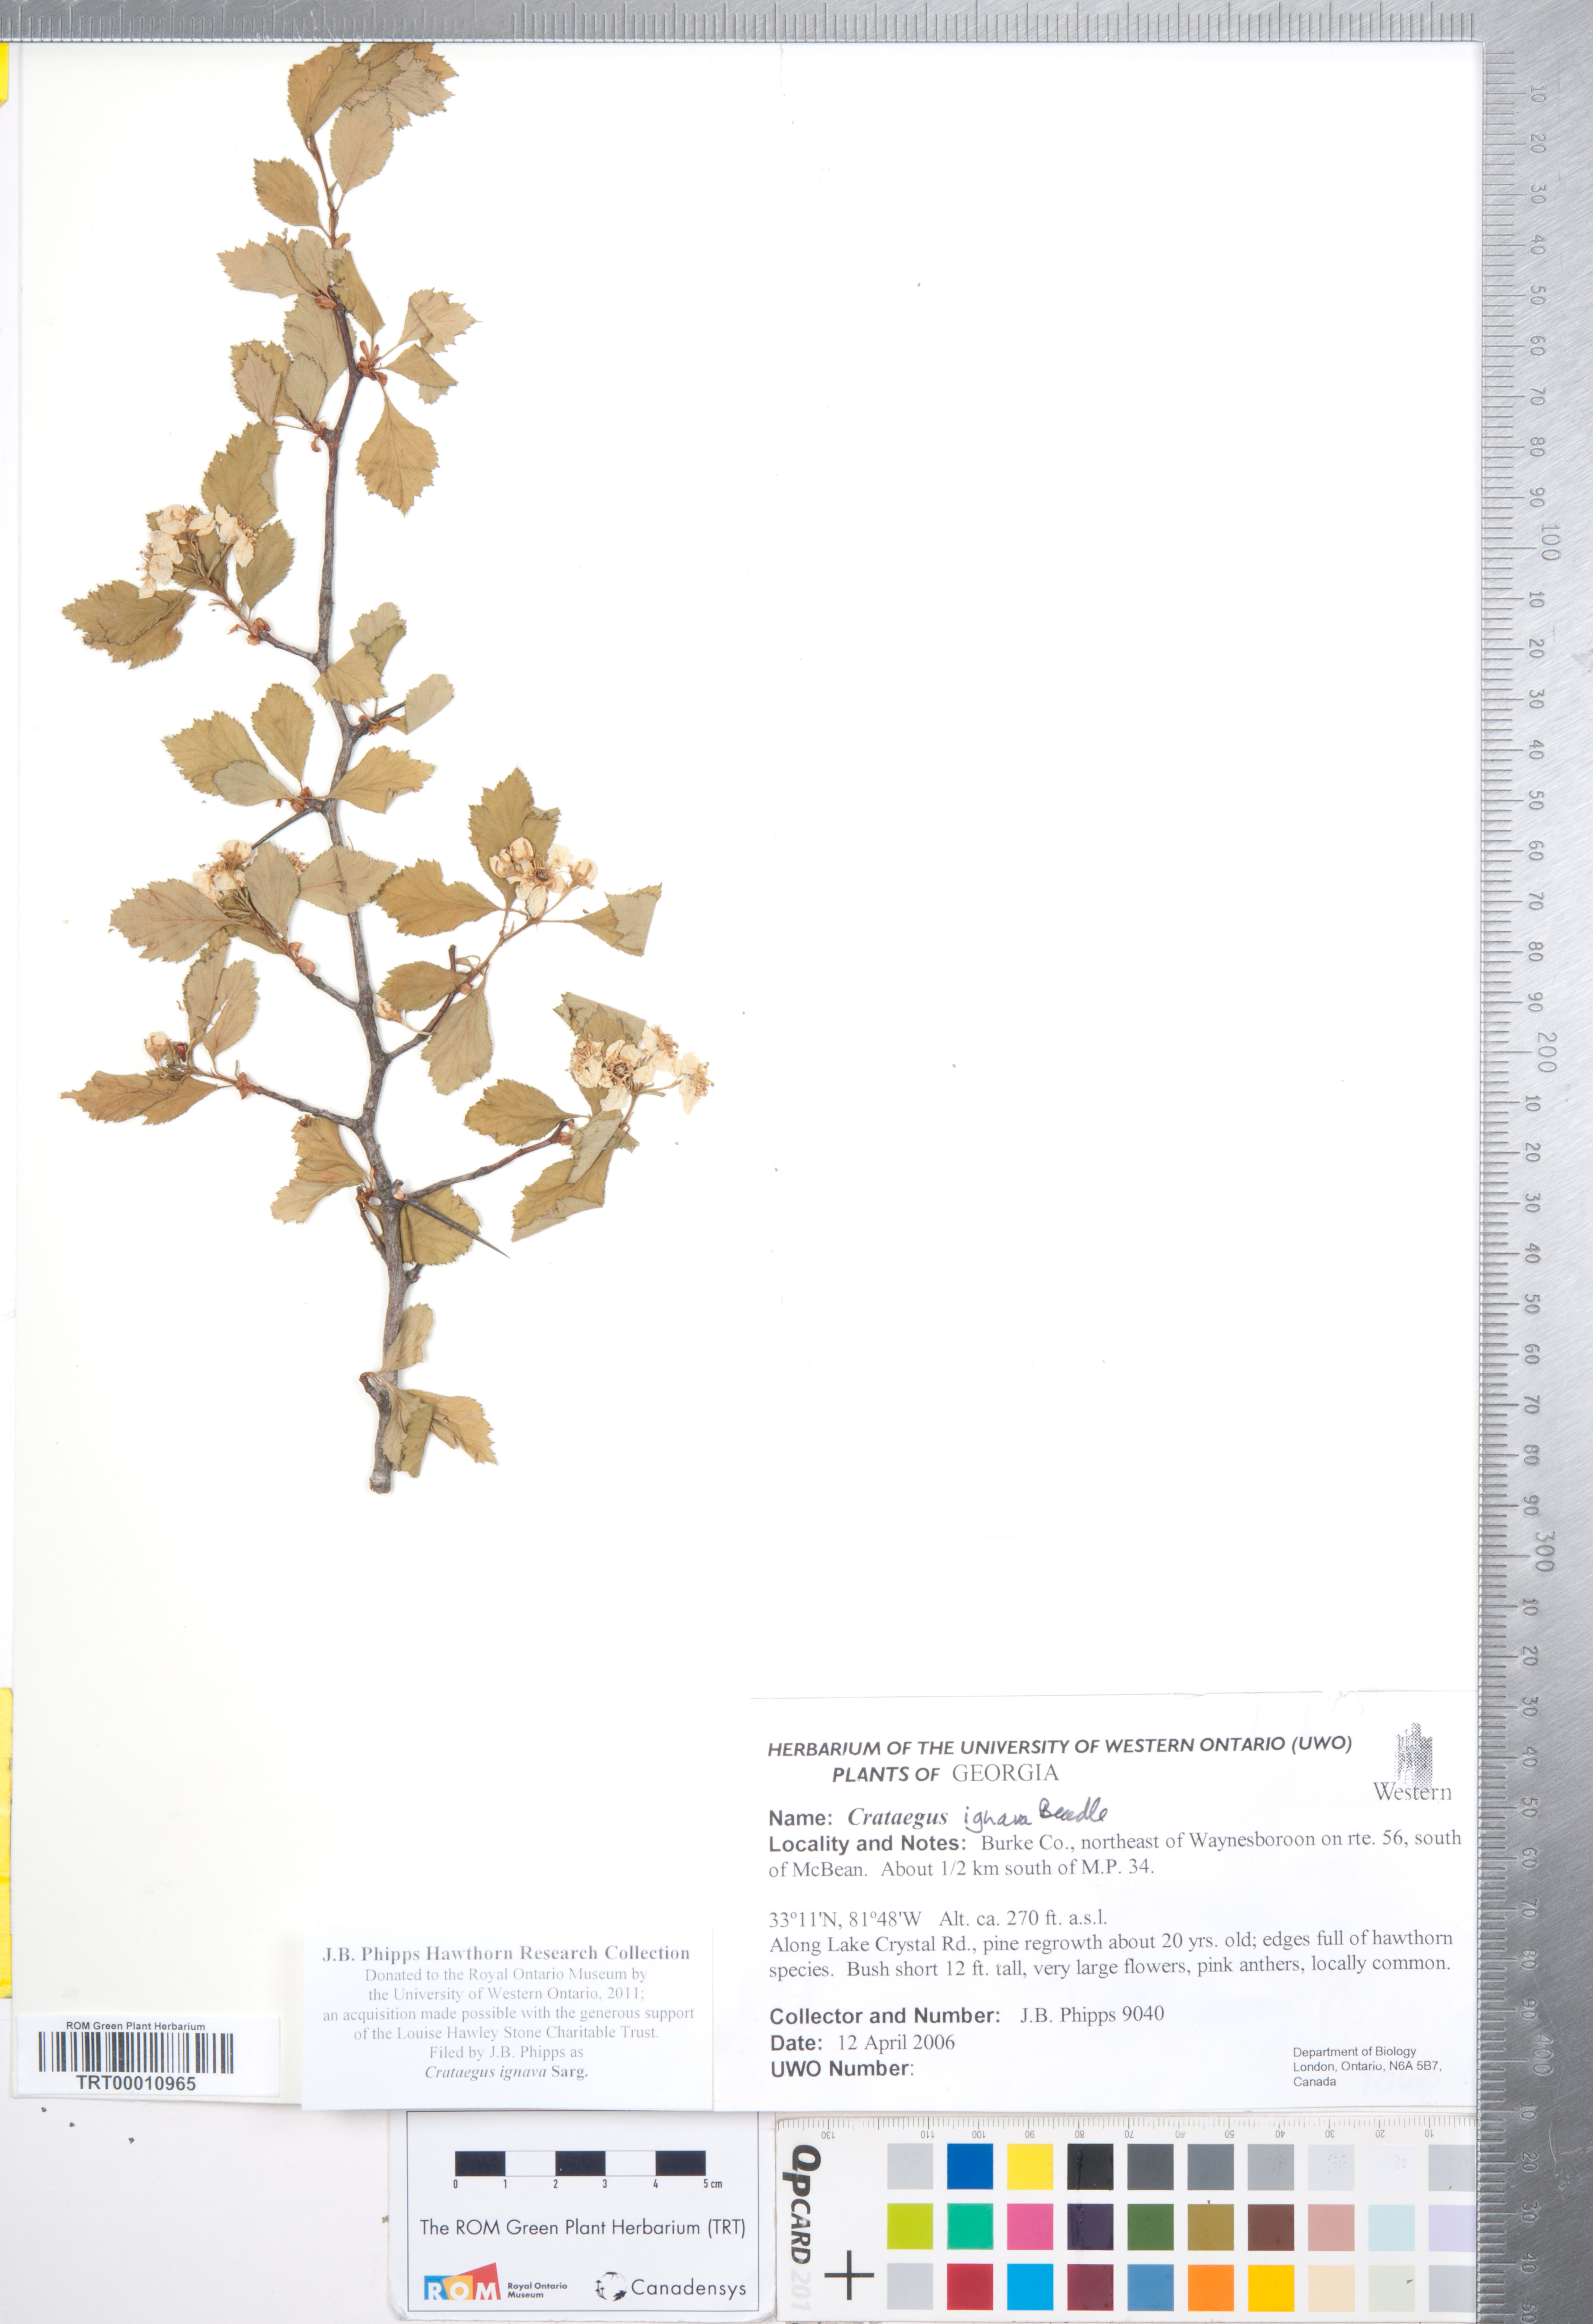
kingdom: Plantae
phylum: Tracheophyta
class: Magnoliopsida
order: Rosales
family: Rosaceae
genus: Crataegus
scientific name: Crataegus ignava
